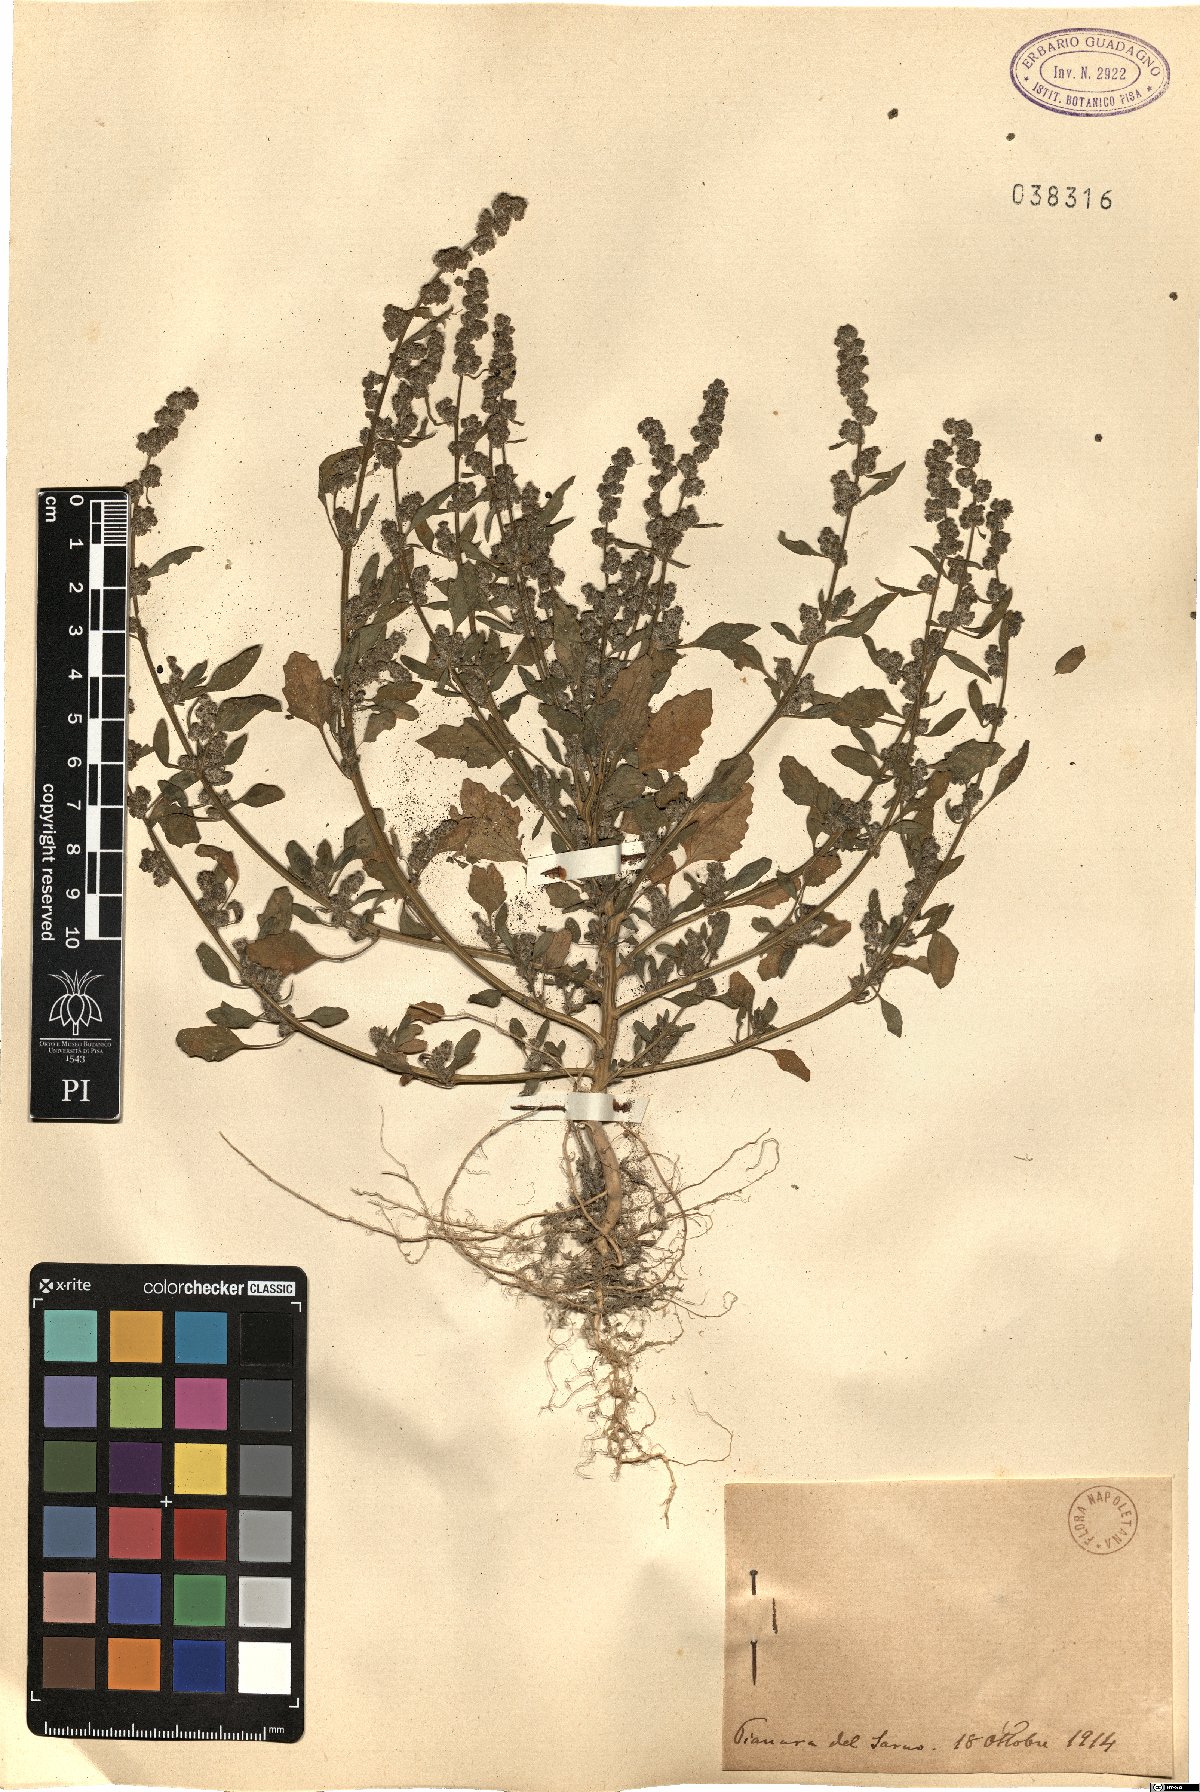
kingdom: Plantae
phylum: Tracheophyta
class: Magnoliopsida
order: Caryophyllales
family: Amaranthaceae
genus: Chenopodium
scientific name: Chenopodium
